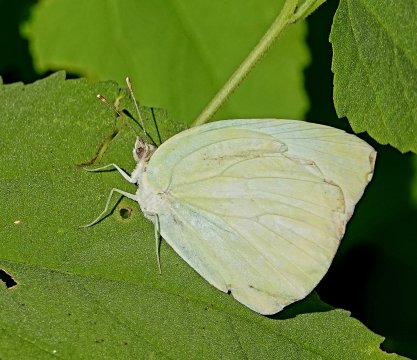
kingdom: Animalia
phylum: Arthropoda
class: Insecta
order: Lepidoptera
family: Pieridae
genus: Kricogonia
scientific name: Kricogonia lyside
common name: Lyside Sulphur
